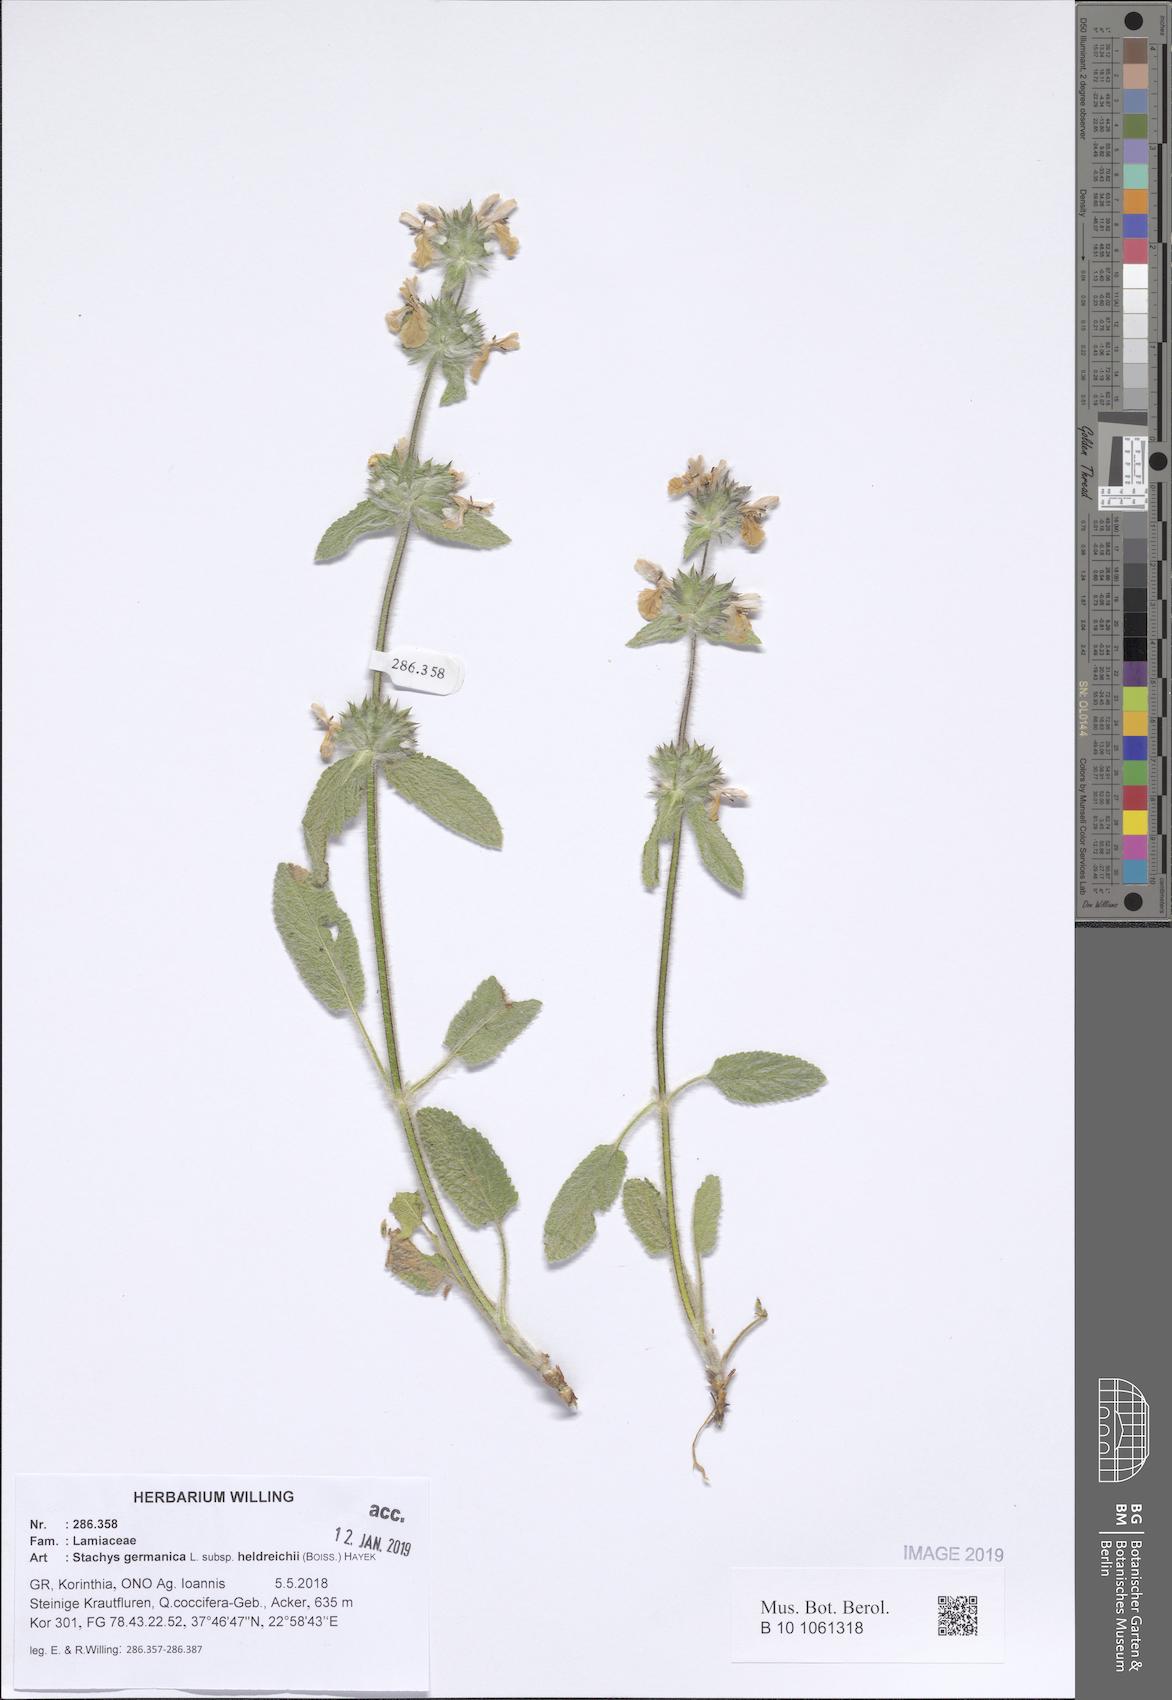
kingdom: Plantae
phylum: Tracheophyta
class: Magnoliopsida
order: Lamiales
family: Lamiaceae
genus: Stachys
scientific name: Stachys germanica
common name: Downy woundwort
